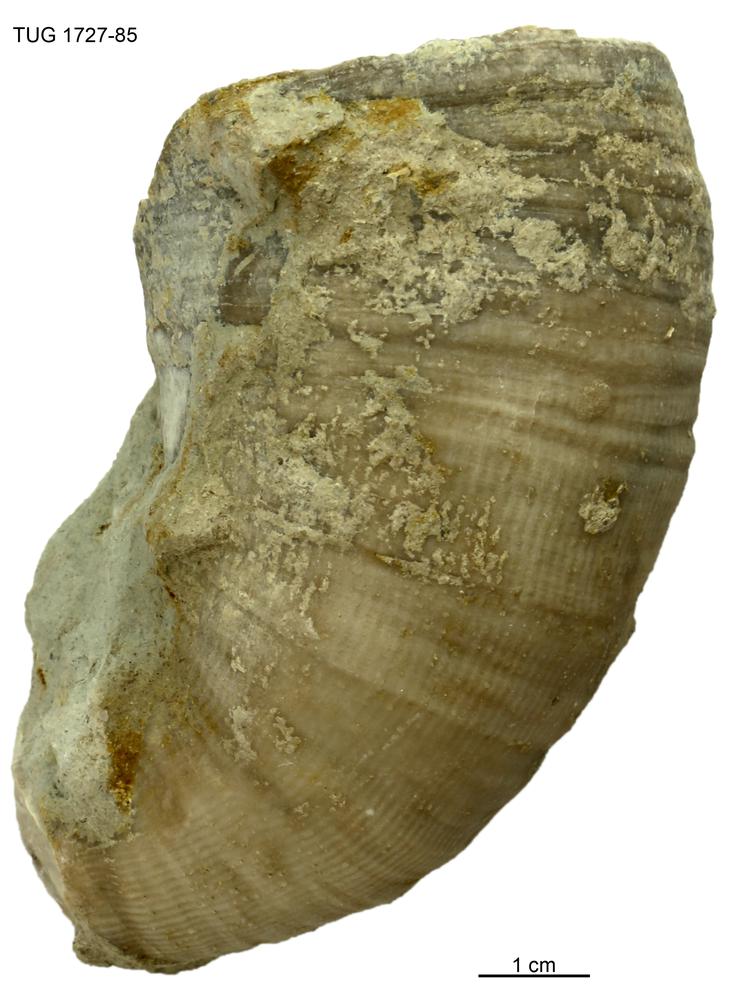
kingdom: Animalia
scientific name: Animalia
